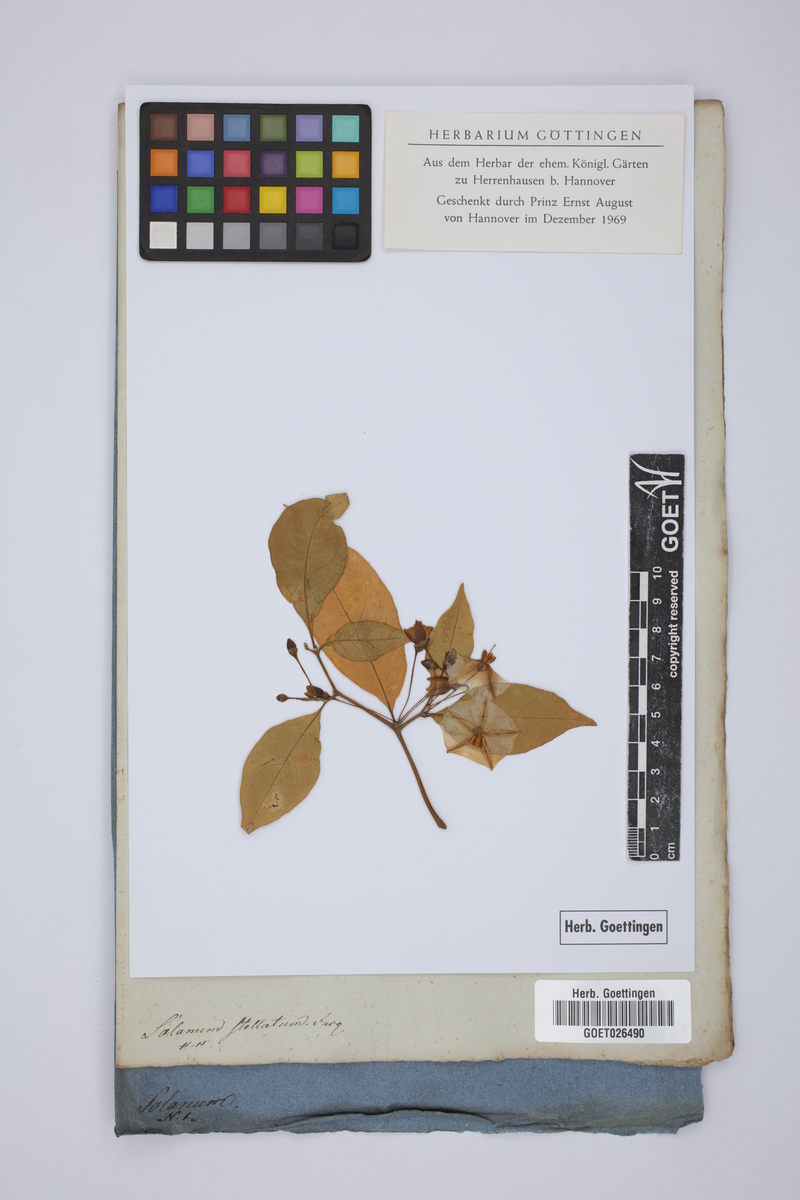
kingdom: Plantae
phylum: Tracheophyta
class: Magnoliopsida
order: Solanales
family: Solanaceae
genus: Lycianthes
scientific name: Lycianthes stellata
